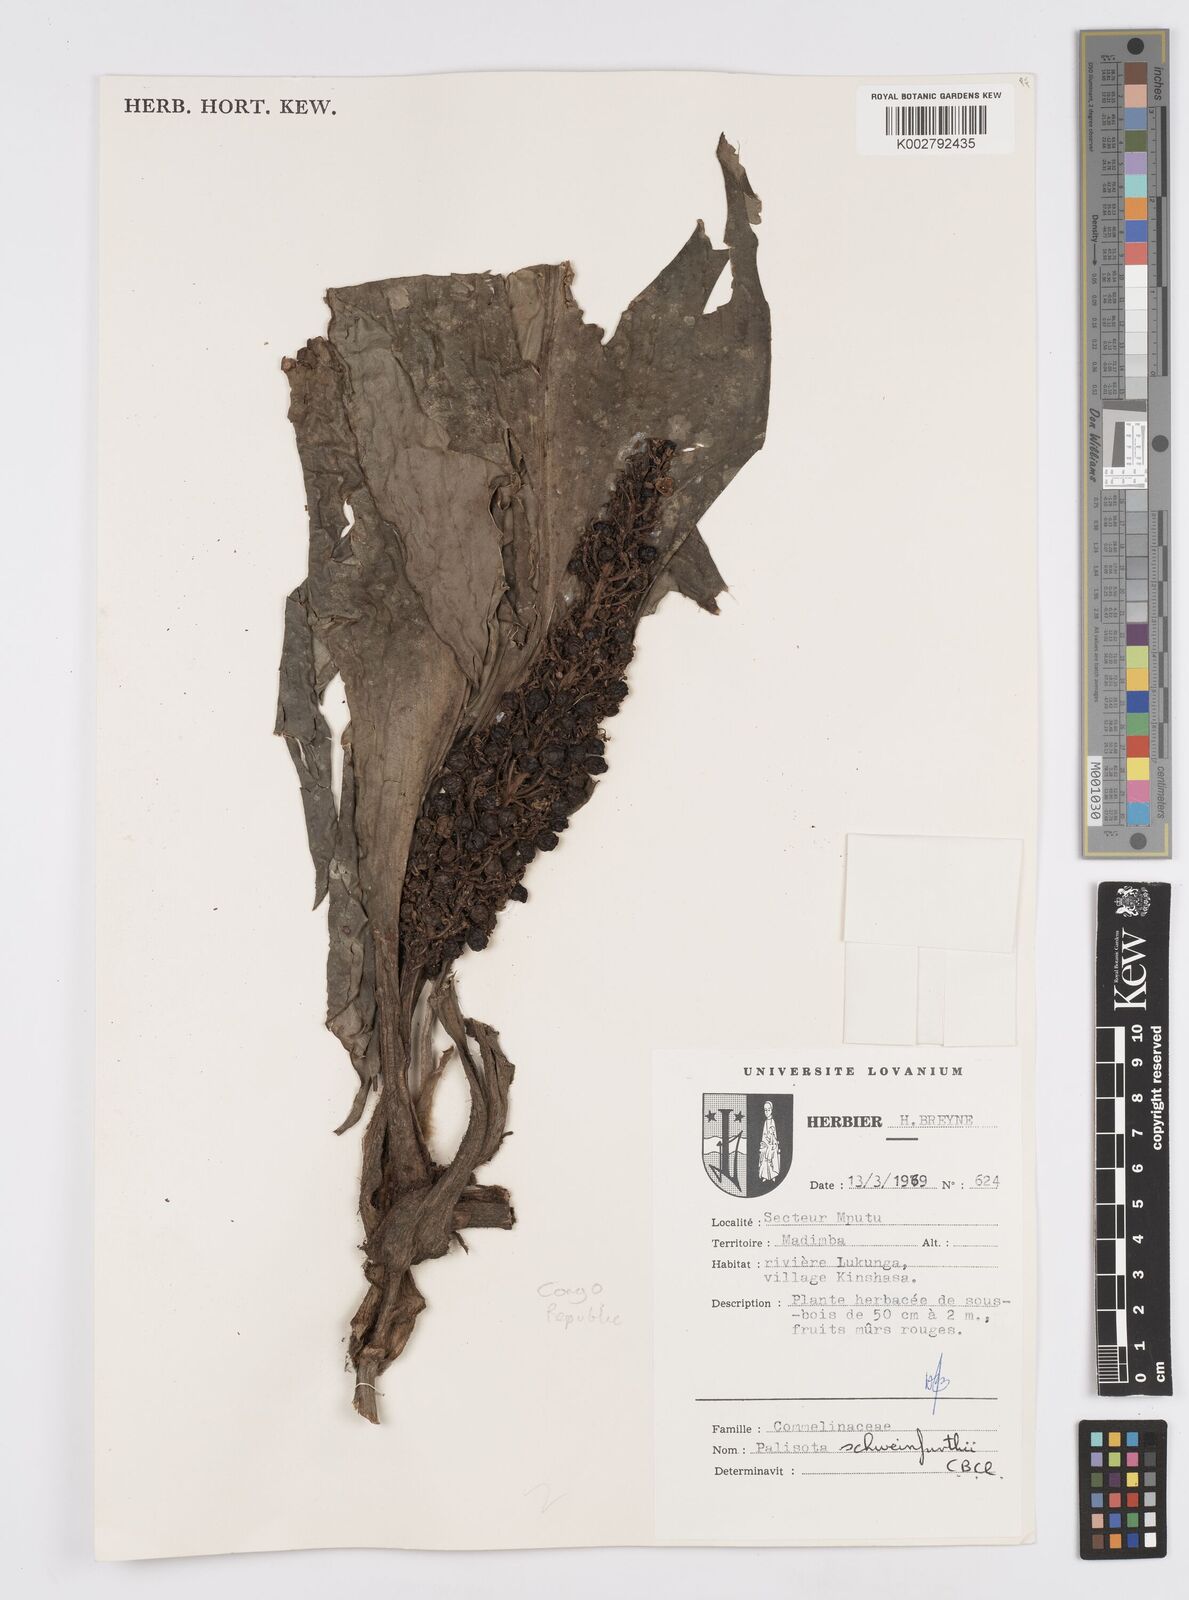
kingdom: Plantae
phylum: Tracheophyta
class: Liliopsida
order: Commelinales
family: Commelinaceae
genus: Palisota
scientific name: Palisota schweinfurthii
